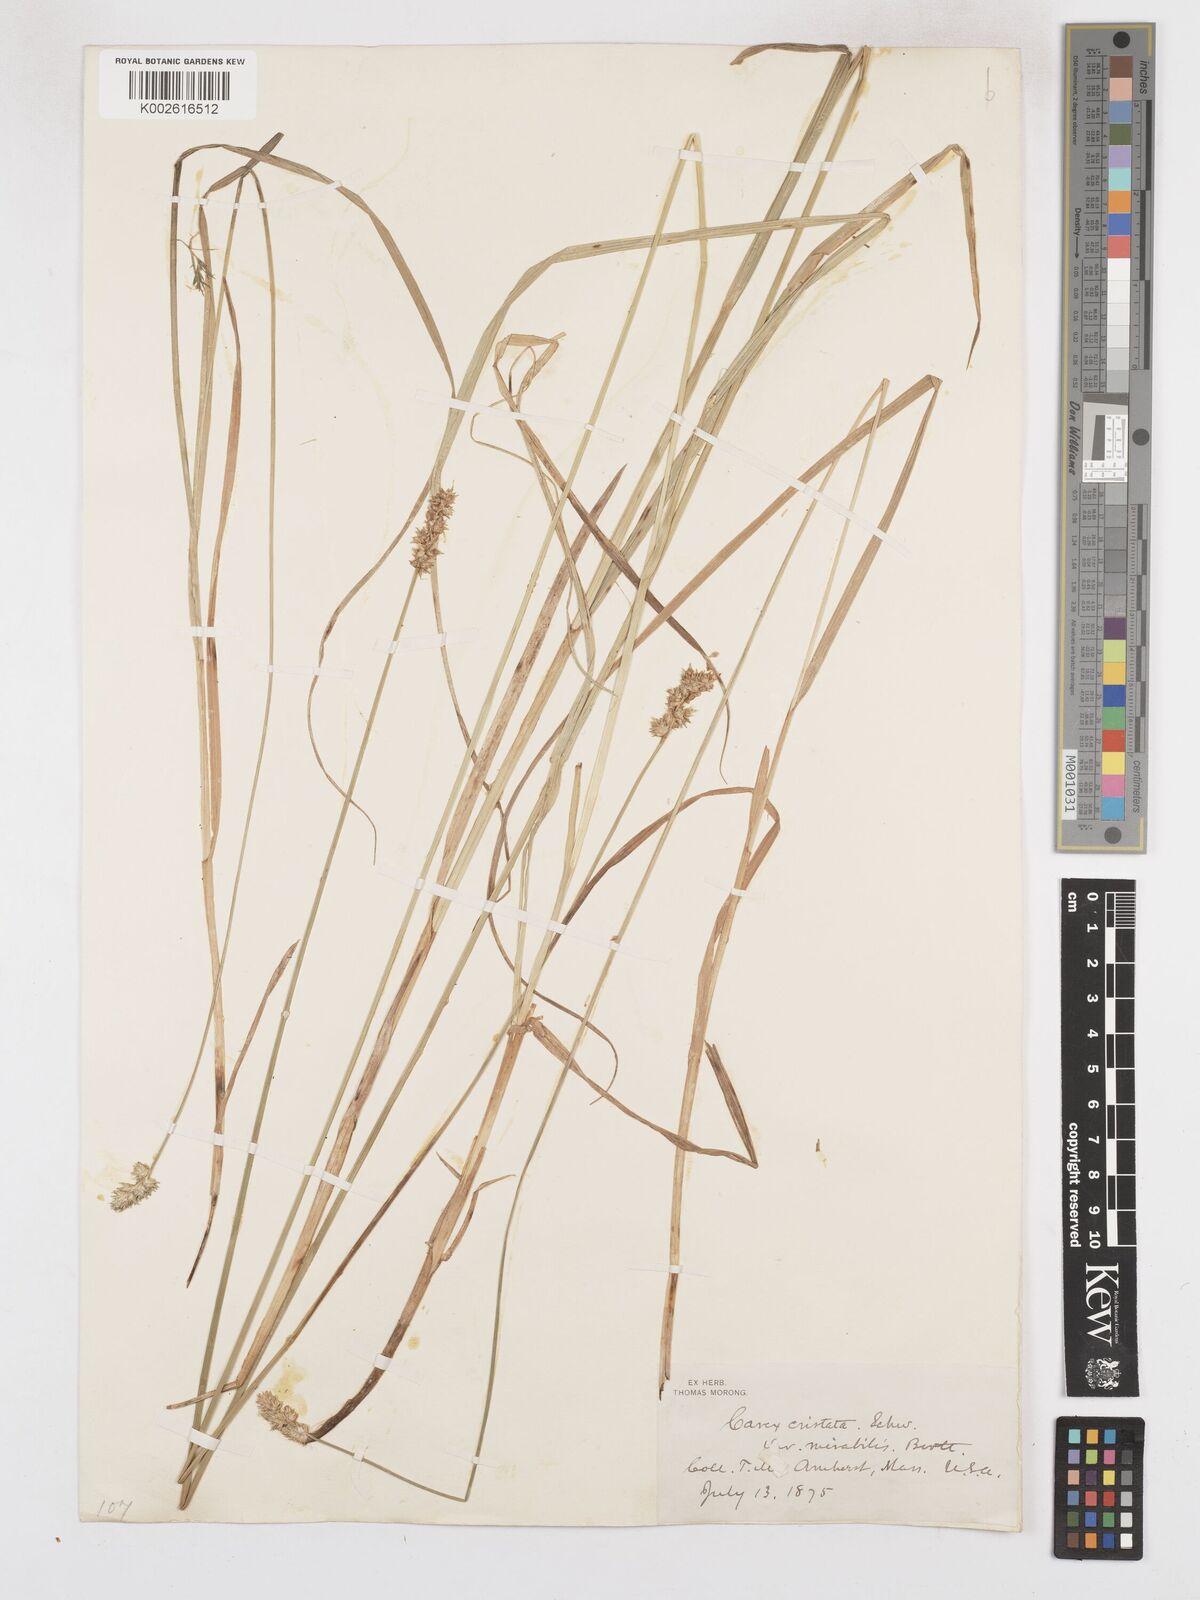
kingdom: Plantae
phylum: Tracheophyta
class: Liliopsida
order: Poales
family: Cyperaceae
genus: Carex
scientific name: Carex cristatella
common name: Crested oval sedge
